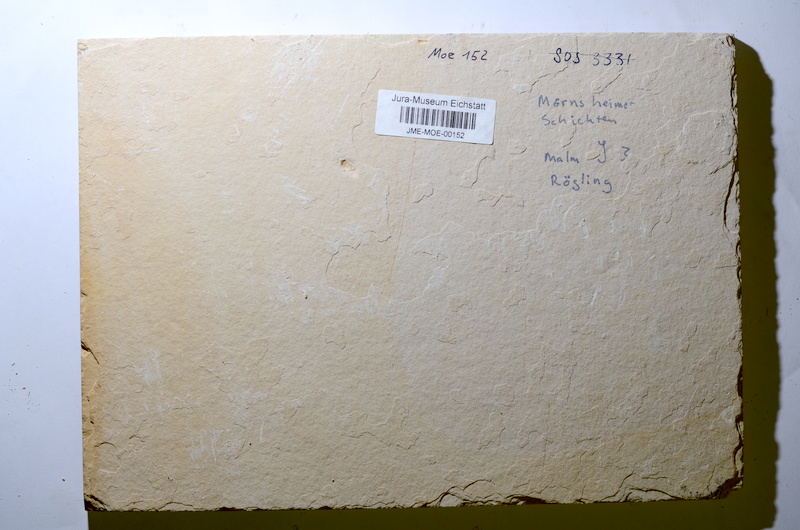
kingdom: Animalia
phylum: Chordata
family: Ascalaboidae
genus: Tharsis
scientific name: Tharsis
